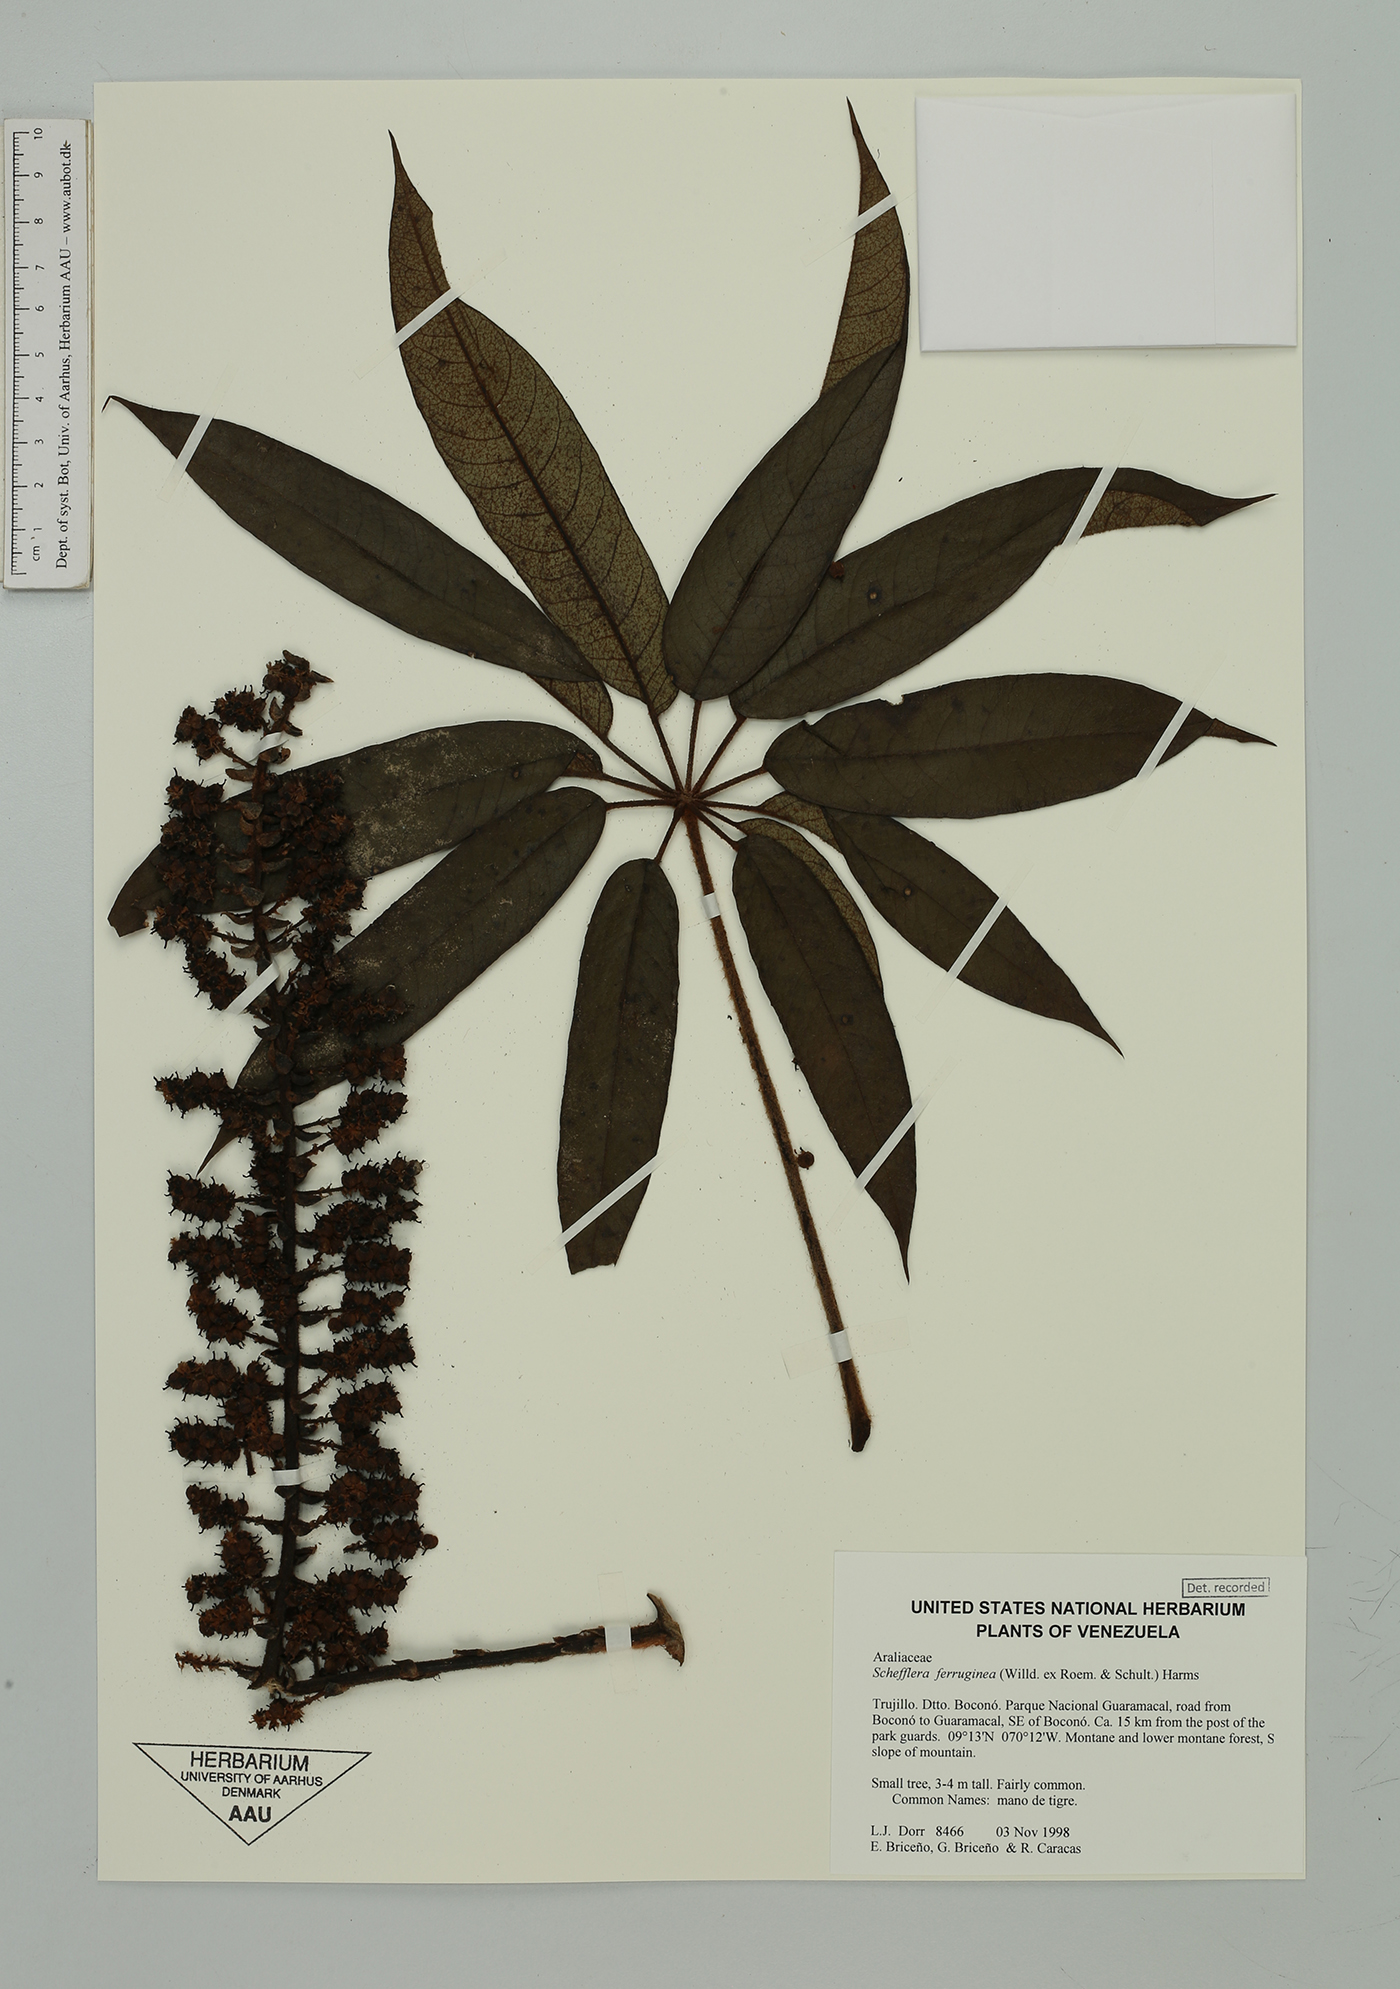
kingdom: Plantae
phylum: Tracheophyta
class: Magnoliopsida
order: Apiales
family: Araliaceae
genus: Sciodaphyllum
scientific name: Sciodaphyllum rubiginosum
